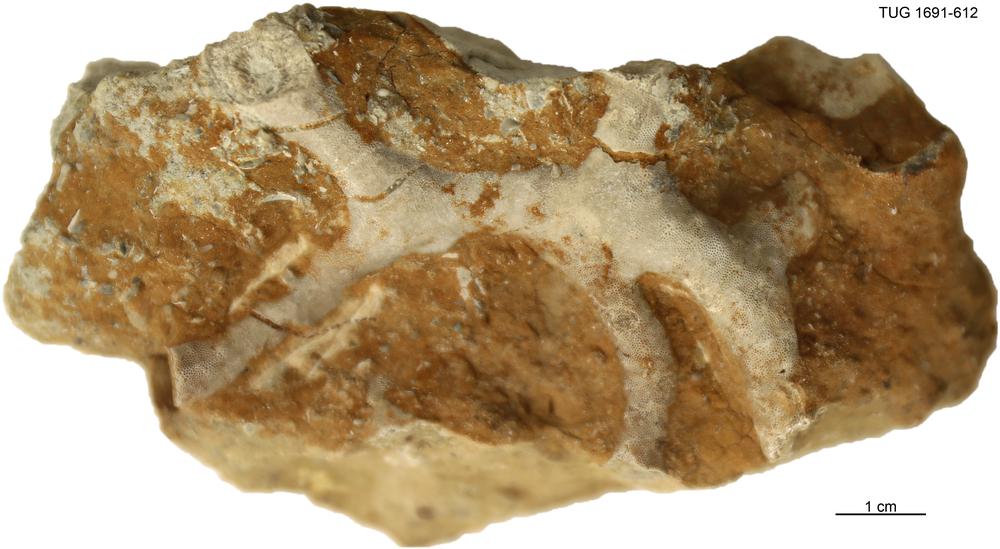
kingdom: Animalia
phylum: Bryozoa
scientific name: Bryozoa
